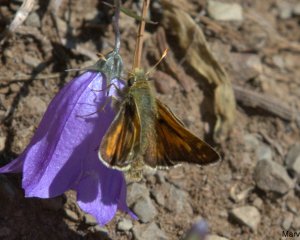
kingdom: Animalia
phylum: Arthropoda
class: Insecta
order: Lepidoptera
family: Hesperiidae
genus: Hesperia
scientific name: Hesperia comma
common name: Common Branded Skipper
